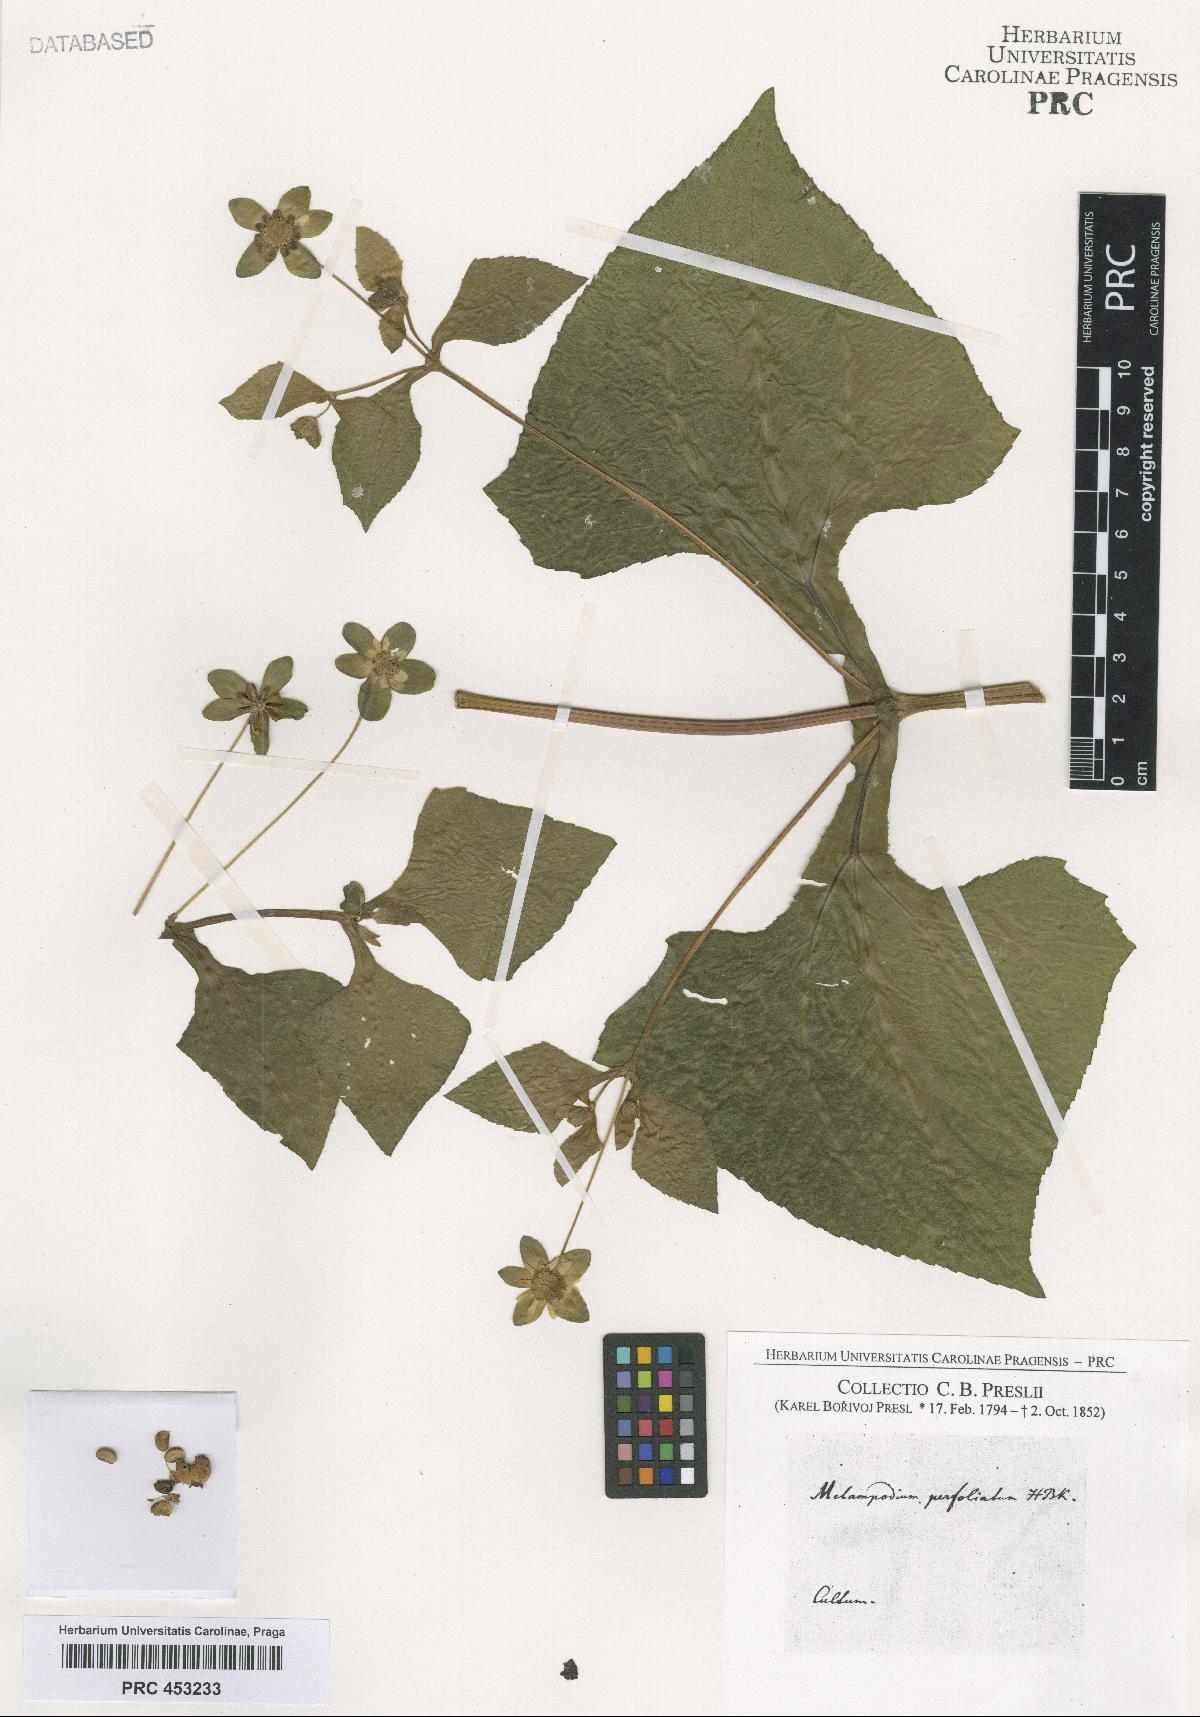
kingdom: Plantae
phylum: Tracheophyta
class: Magnoliopsida
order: Asterales
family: Asteraceae
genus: Melampodium
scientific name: Melampodium perfoliatum
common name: Perfoliate blackfoot
